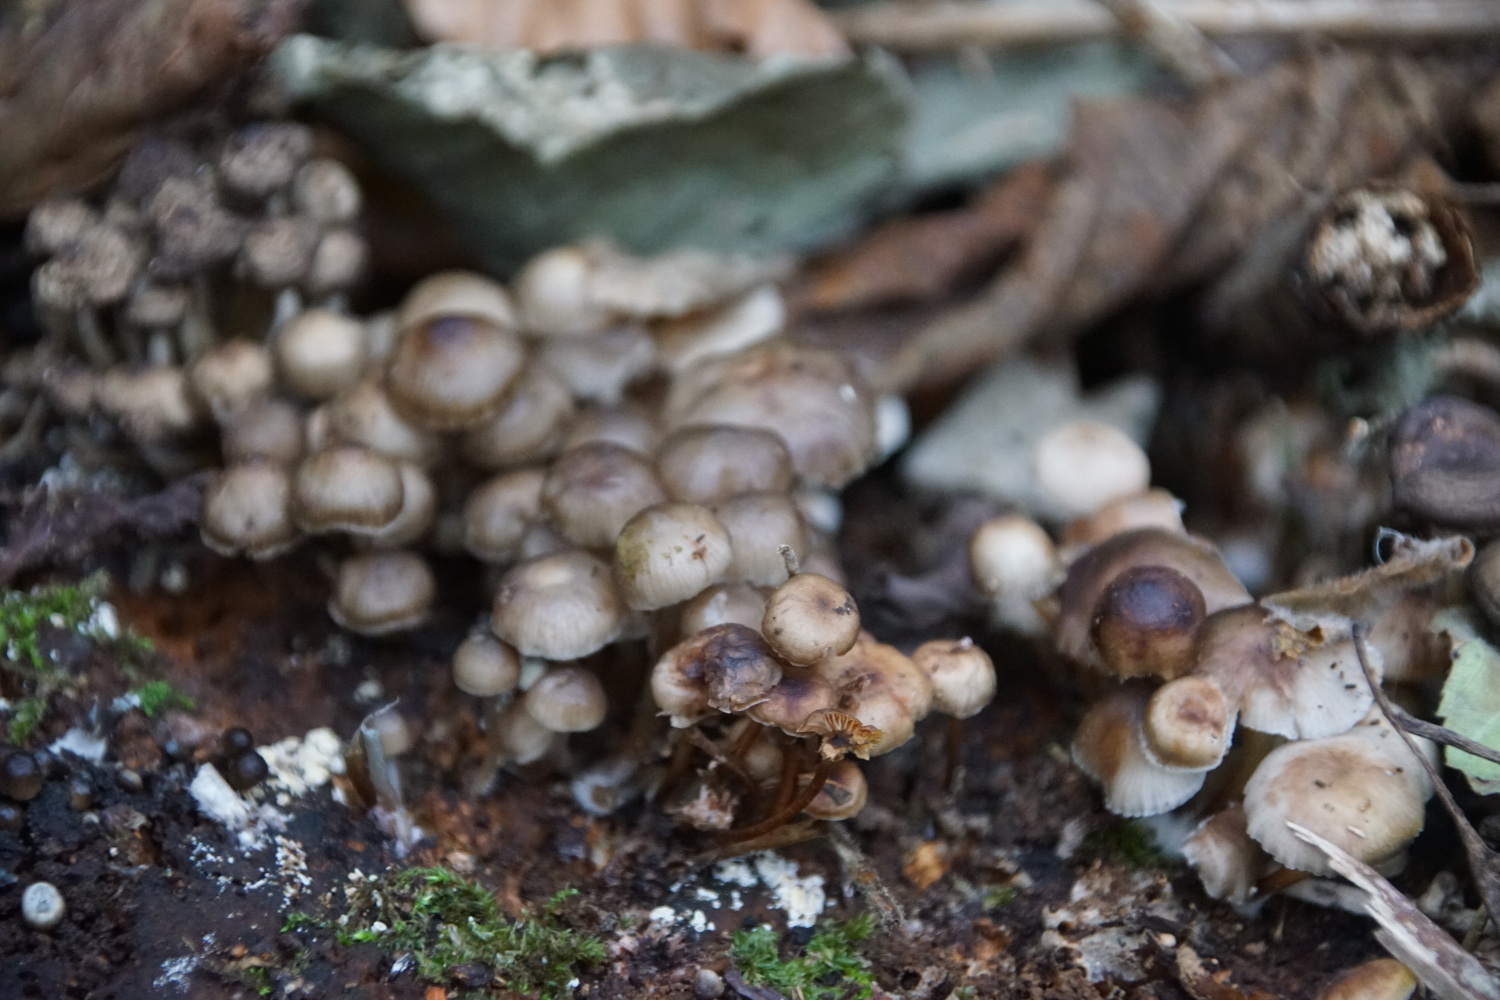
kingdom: Fungi
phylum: Basidiomycota
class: Agaricomycetes
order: Agaricales
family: Mycenaceae
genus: Mycena
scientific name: Mycena tintinnabulum
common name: vinter-huesvamp
